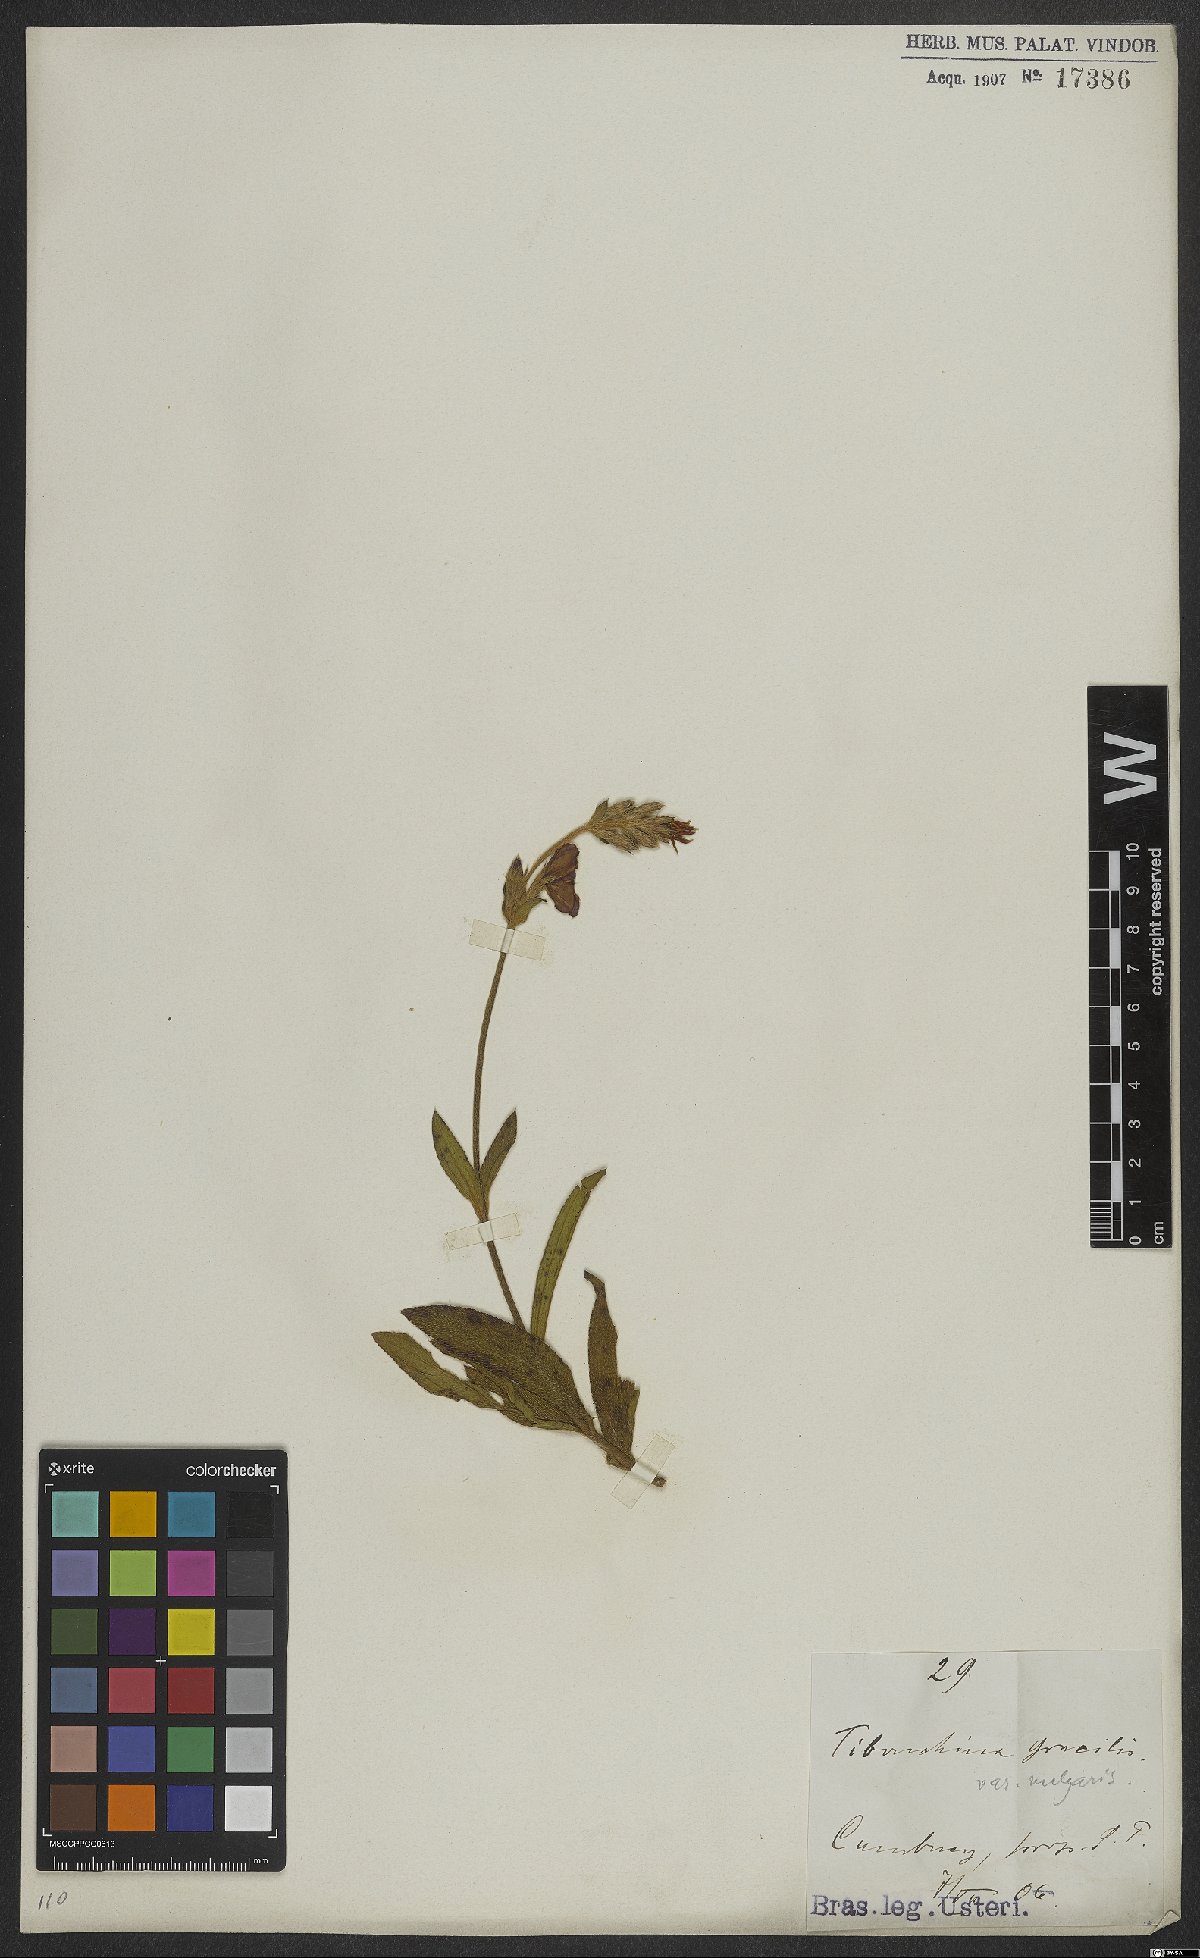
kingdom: Plantae
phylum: Tracheophyta
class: Magnoliopsida
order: Myrtales
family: Melastomataceae
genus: Chaetogastra
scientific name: Chaetogastra gracilis
